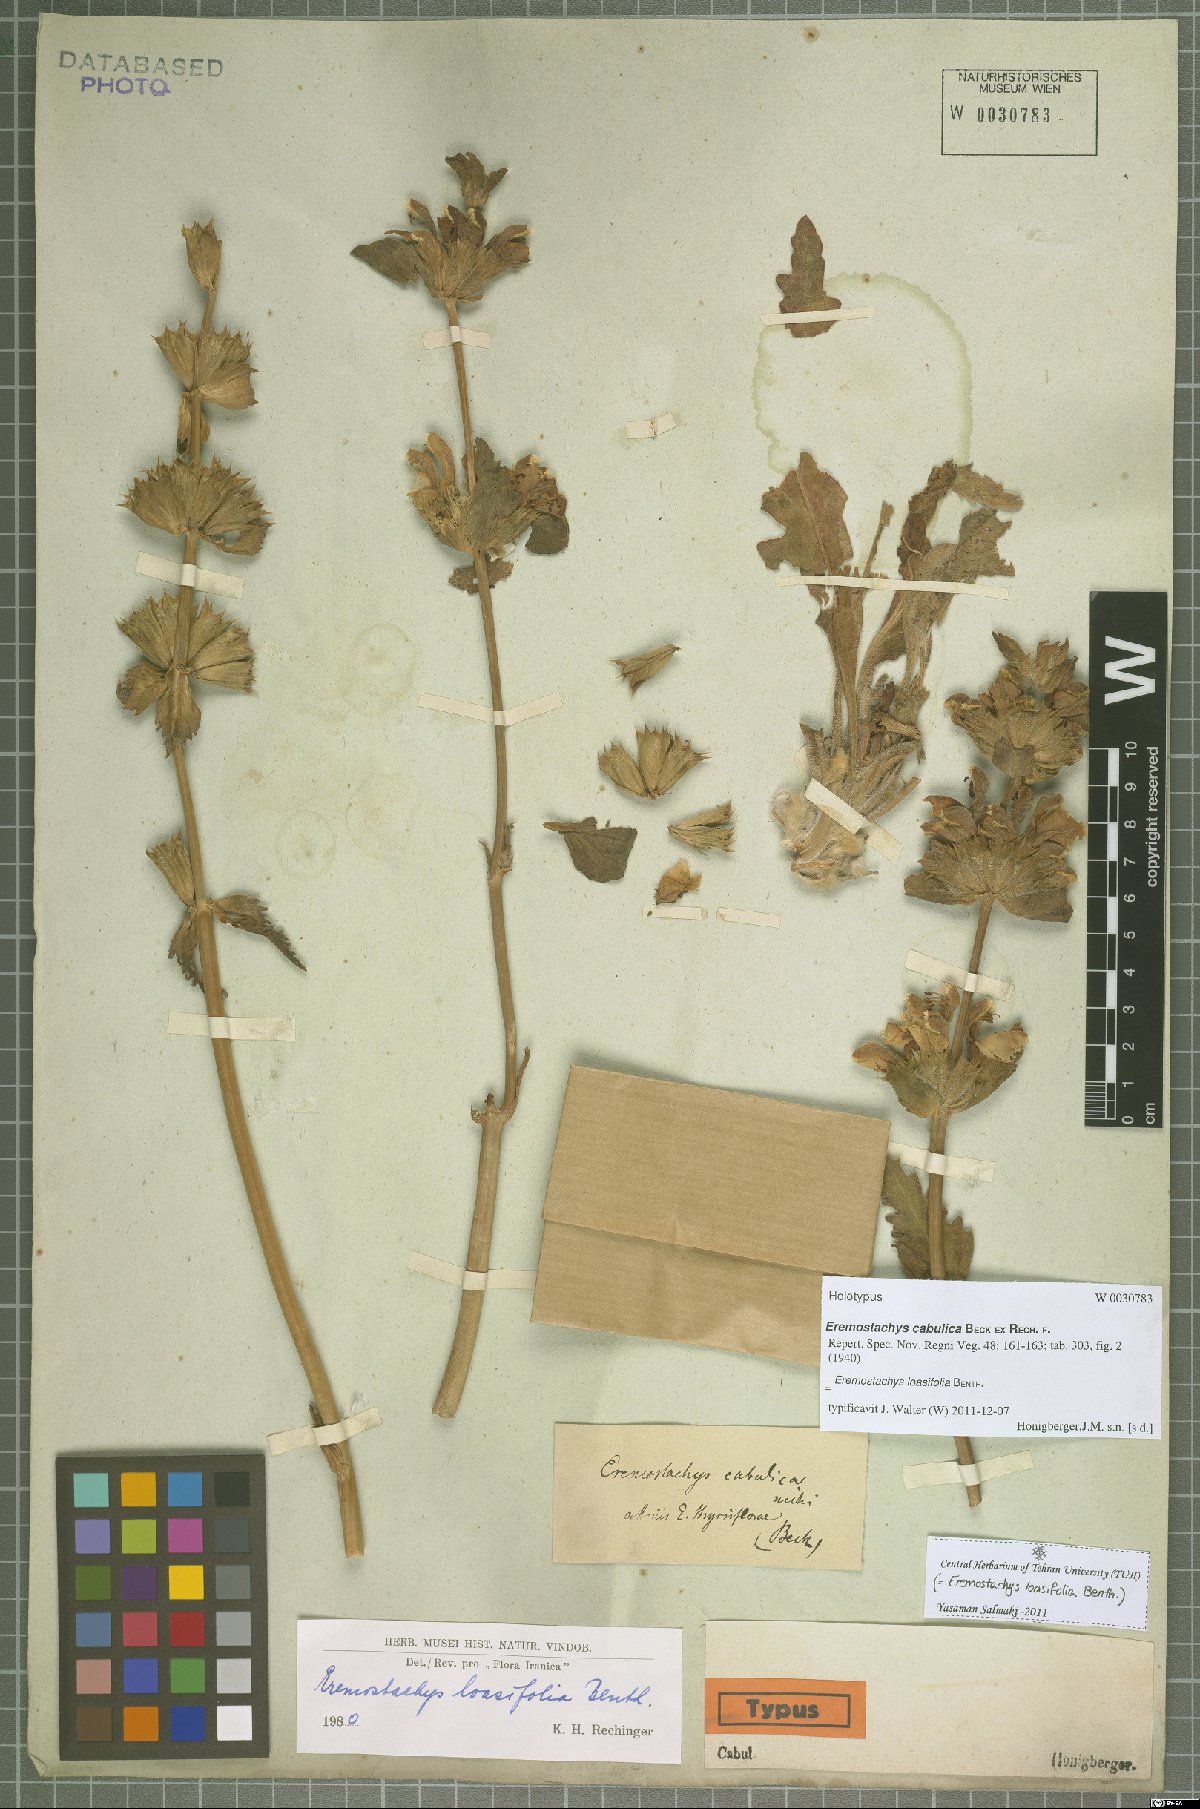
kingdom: Plantae
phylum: Tracheophyta
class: Magnoliopsida
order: Lamiales
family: Lamiaceae
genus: Phlomoides
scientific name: Phlomoides loasifolia
